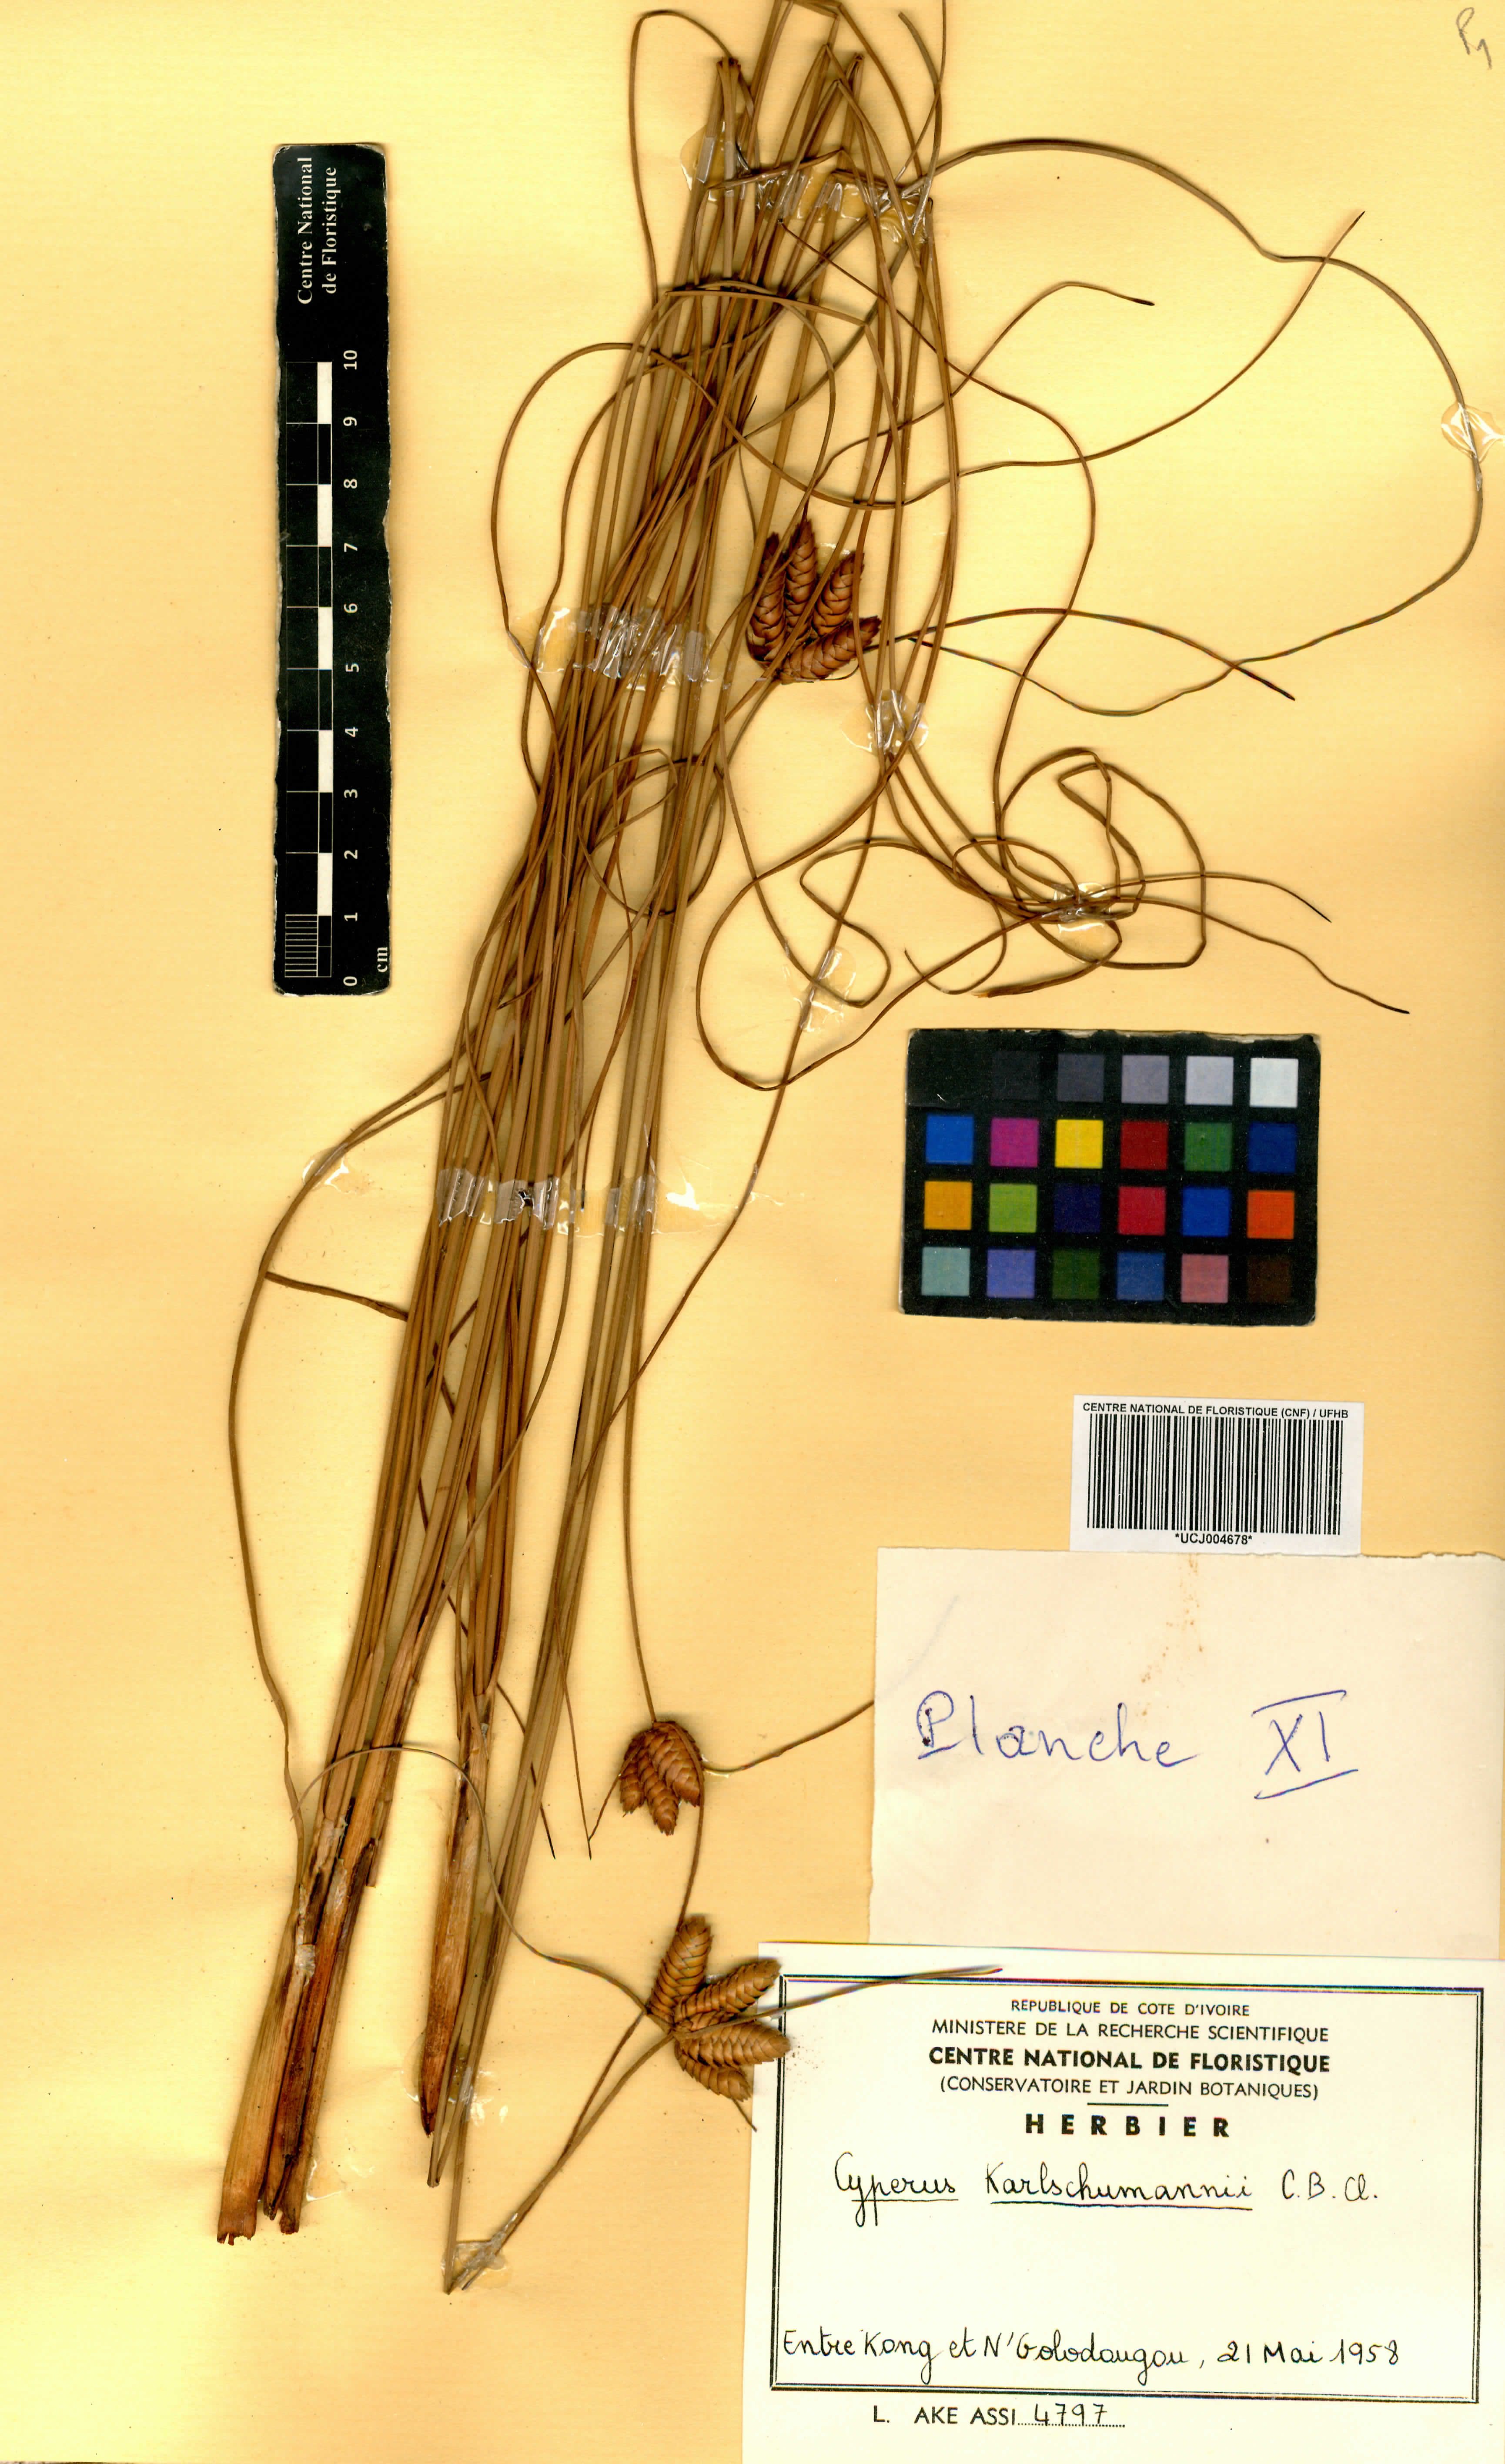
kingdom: Plantae
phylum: Tracheophyta
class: Liliopsida
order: Poales
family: Cyperaceae
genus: Cyperus
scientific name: Cyperus karlschumannii
